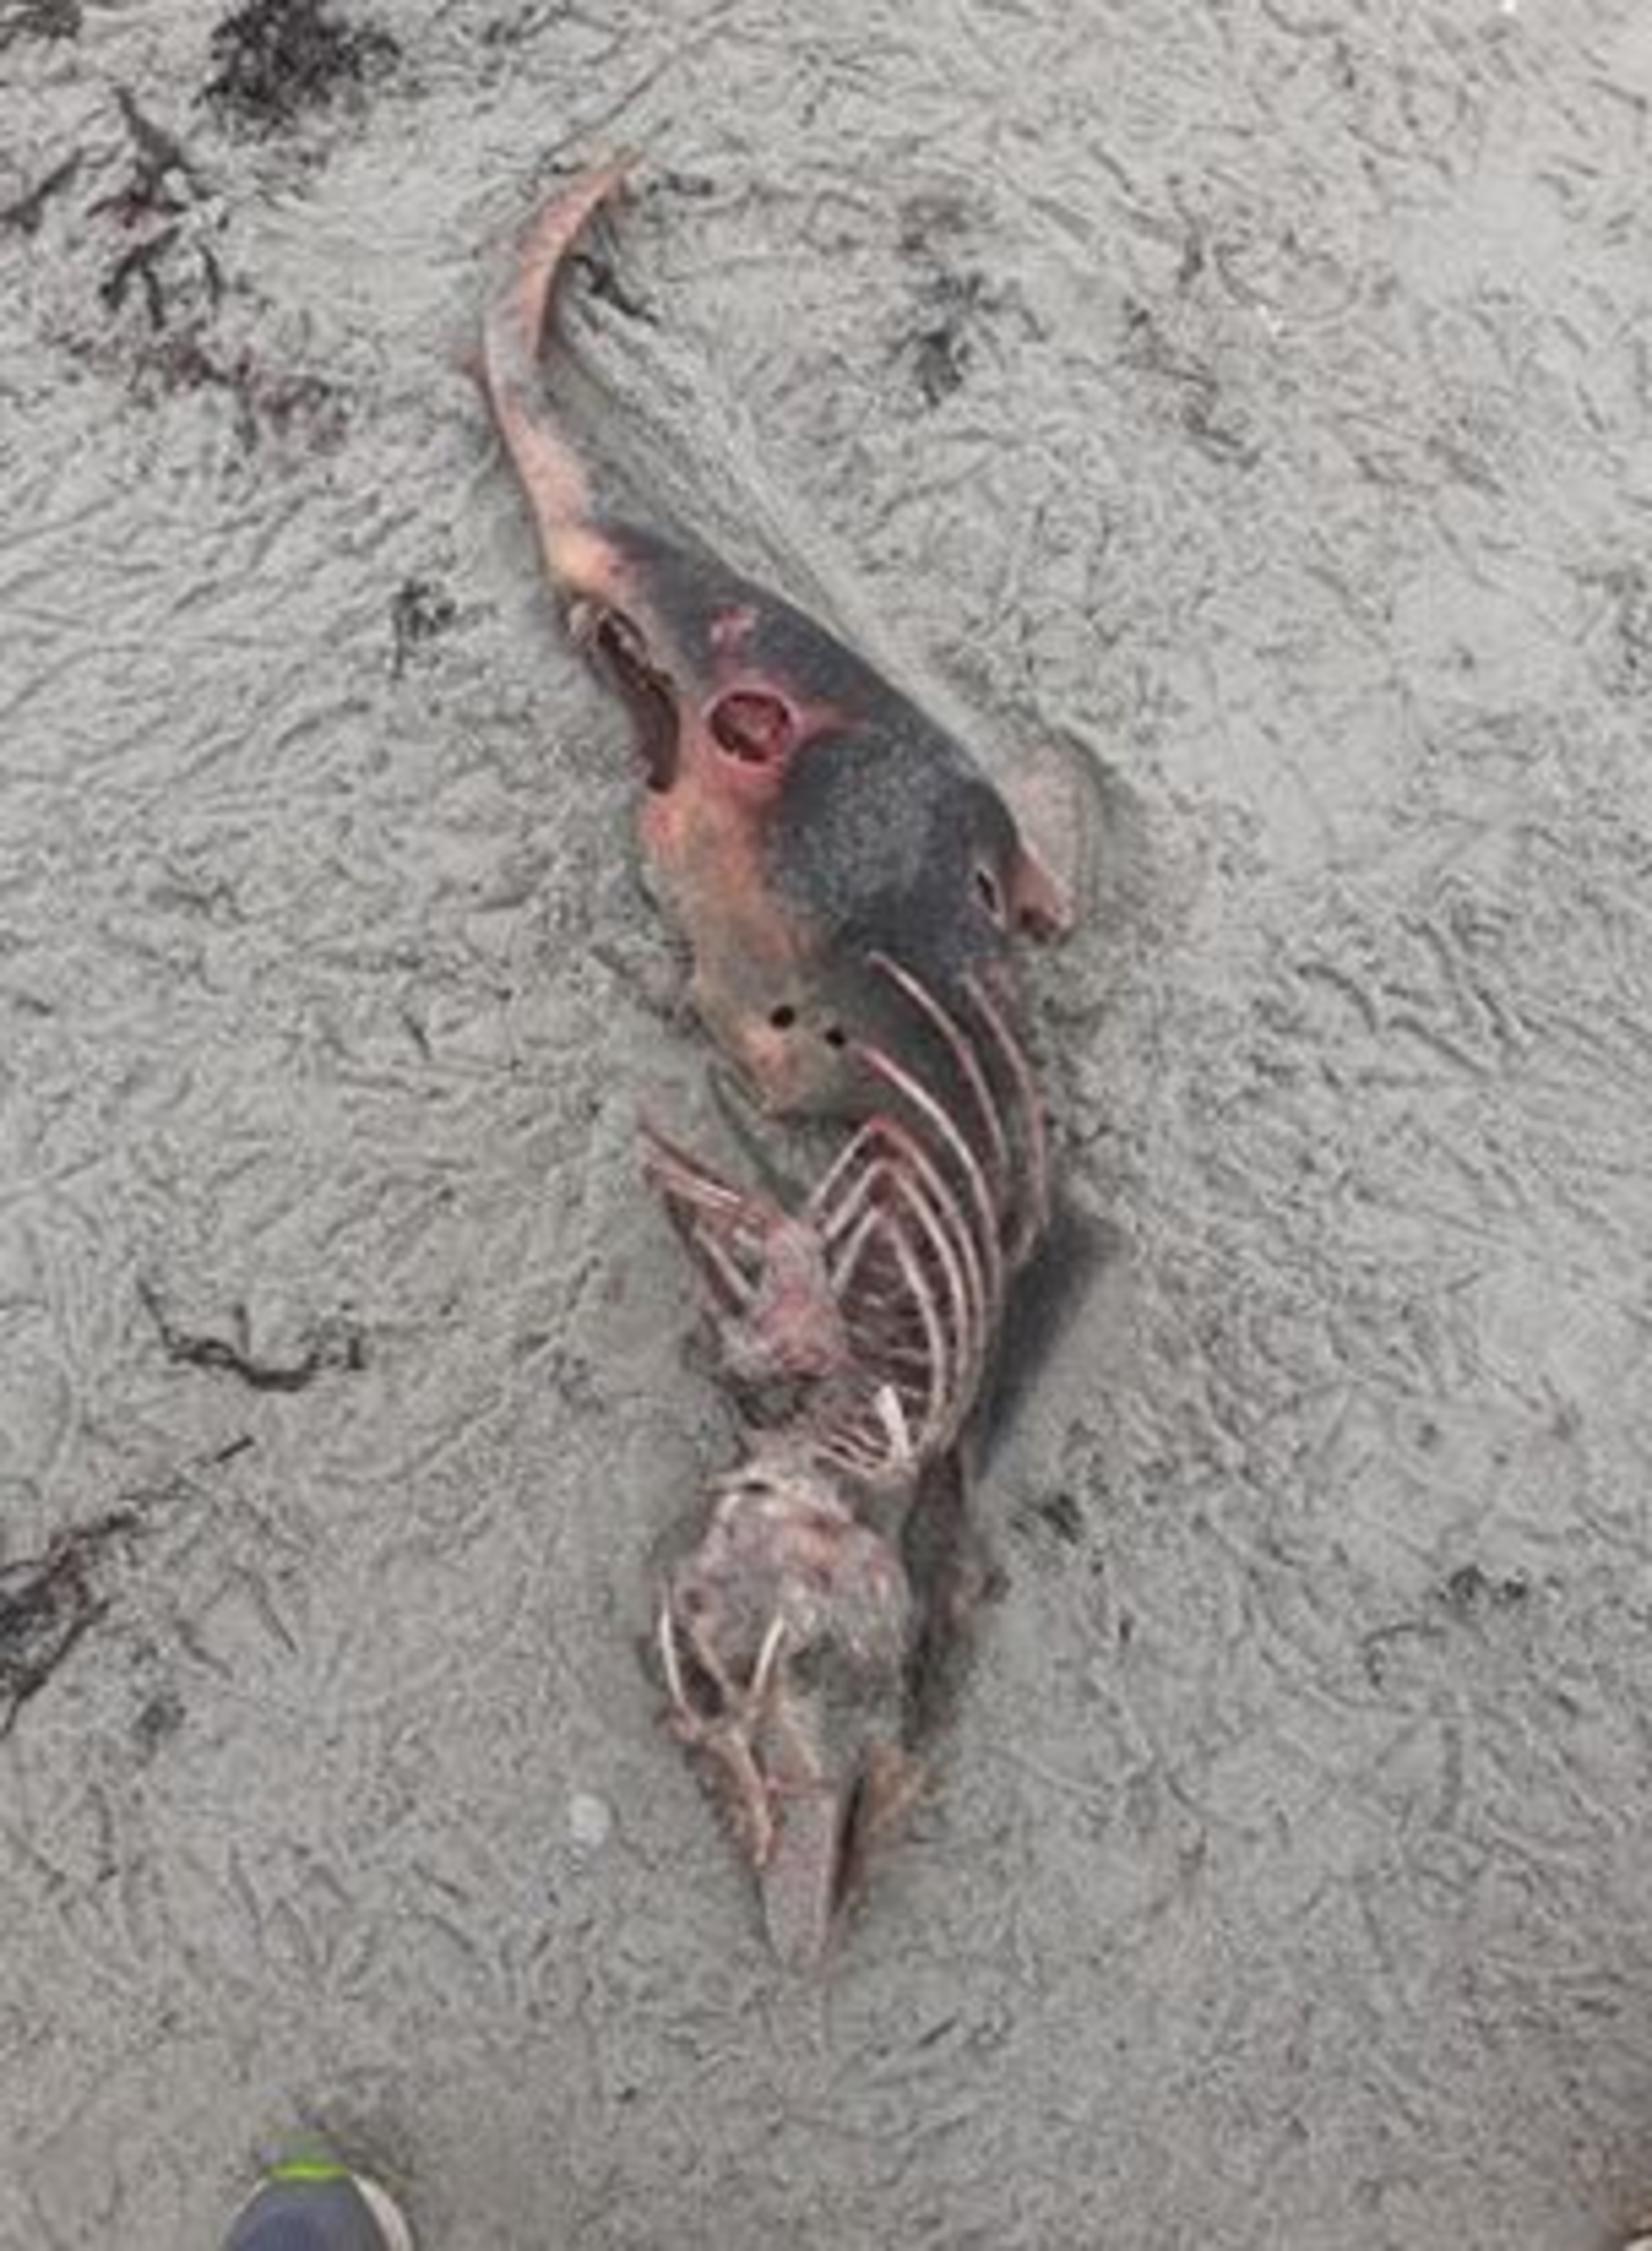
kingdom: Animalia
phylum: Chordata
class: Mammalia
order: Cetacea
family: Phocoenidae
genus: Phocoena
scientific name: Phocoena phocoena
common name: Marsvin
